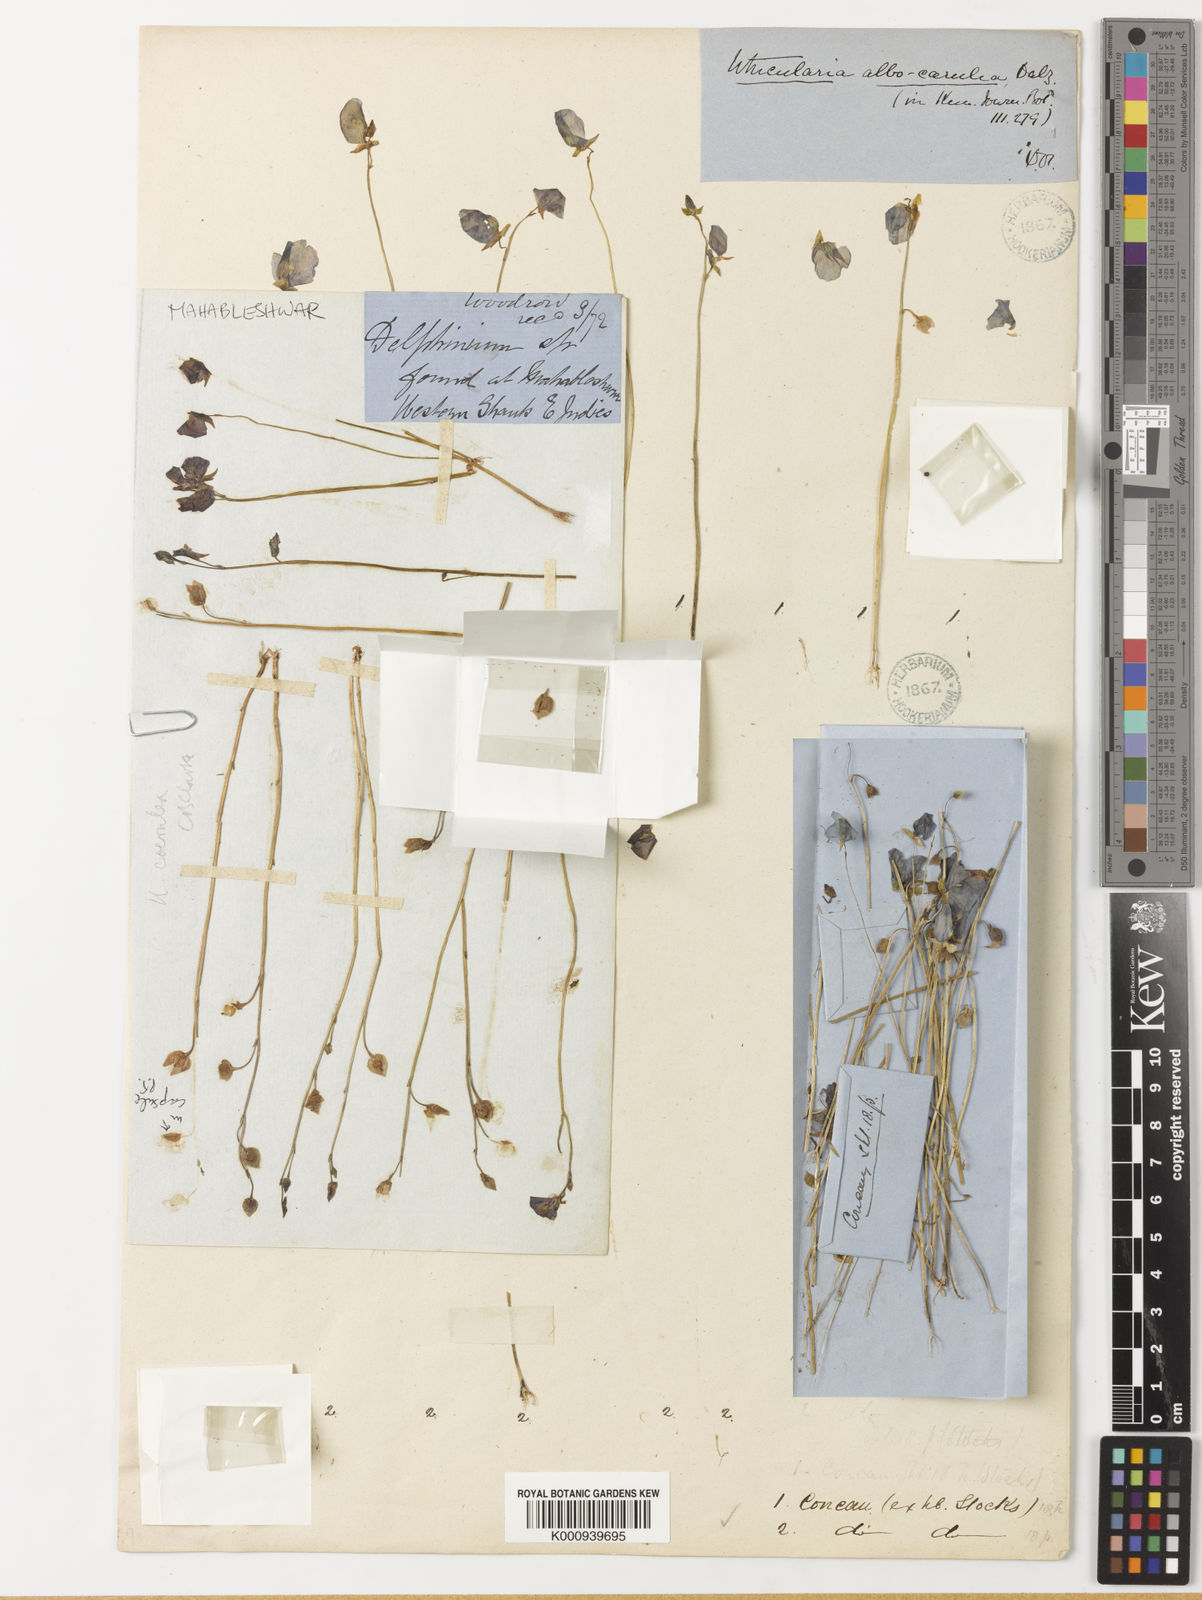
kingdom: Plantae
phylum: Tracheophyta
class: Magnoliopsida
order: Lamiales
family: Lentibulariaceae
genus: Utricularia
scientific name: Utricularia
